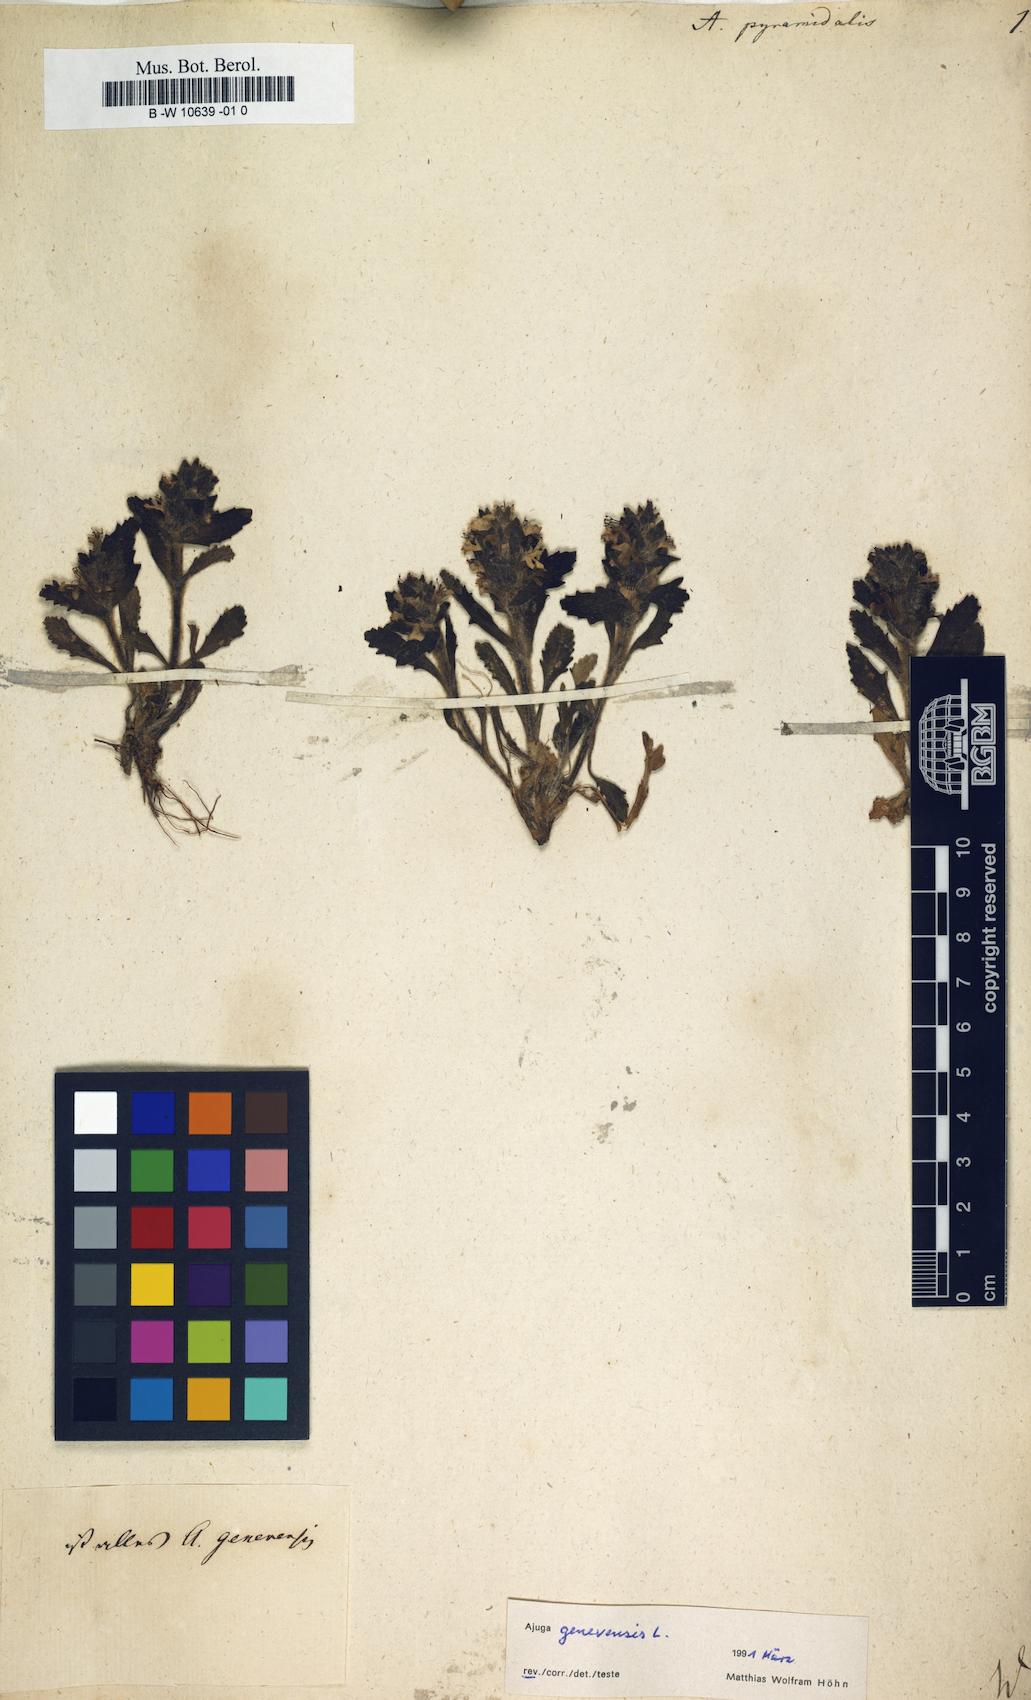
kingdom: Plantae
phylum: Tracheophyta
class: Magnoliopsida
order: Lamiales
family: Lamiaceae
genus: Ajuga
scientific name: Ajuga pyramidalis
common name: Pyramid bugle
